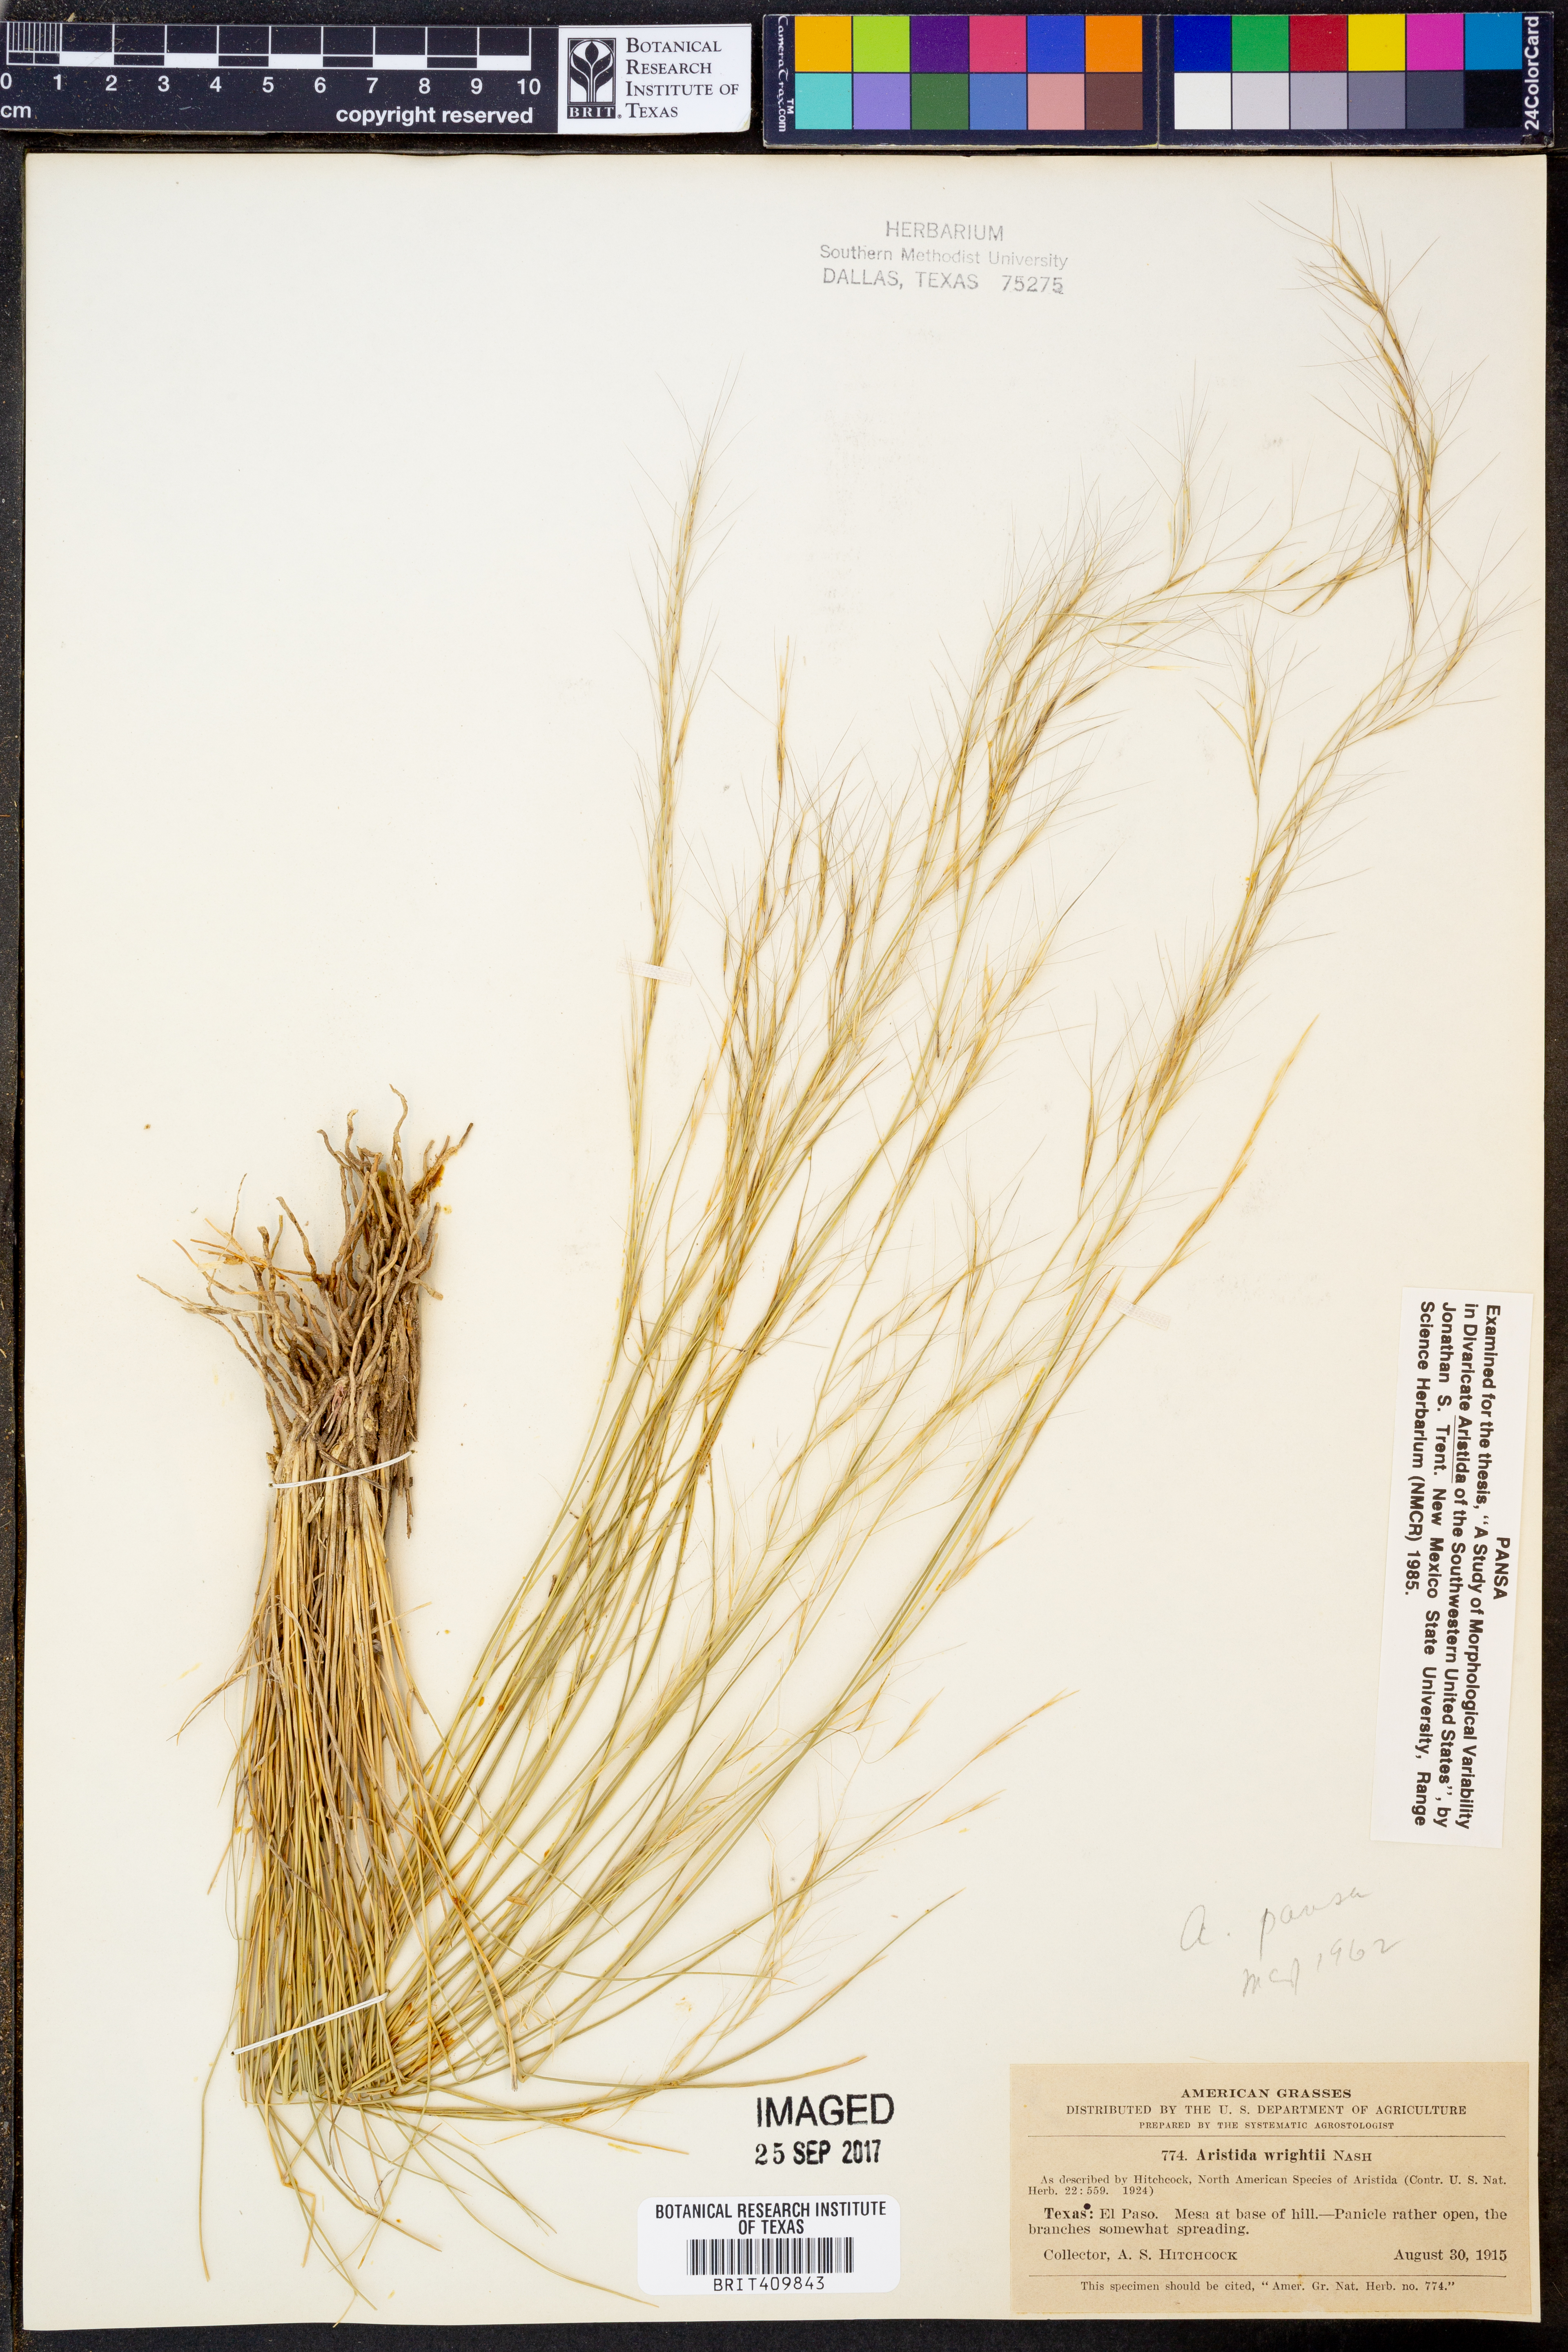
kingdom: Plantae
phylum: Tracheophyta
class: Liliopsida
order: Poales
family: Poaceae
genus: Aristida
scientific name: Aristida wrightii
